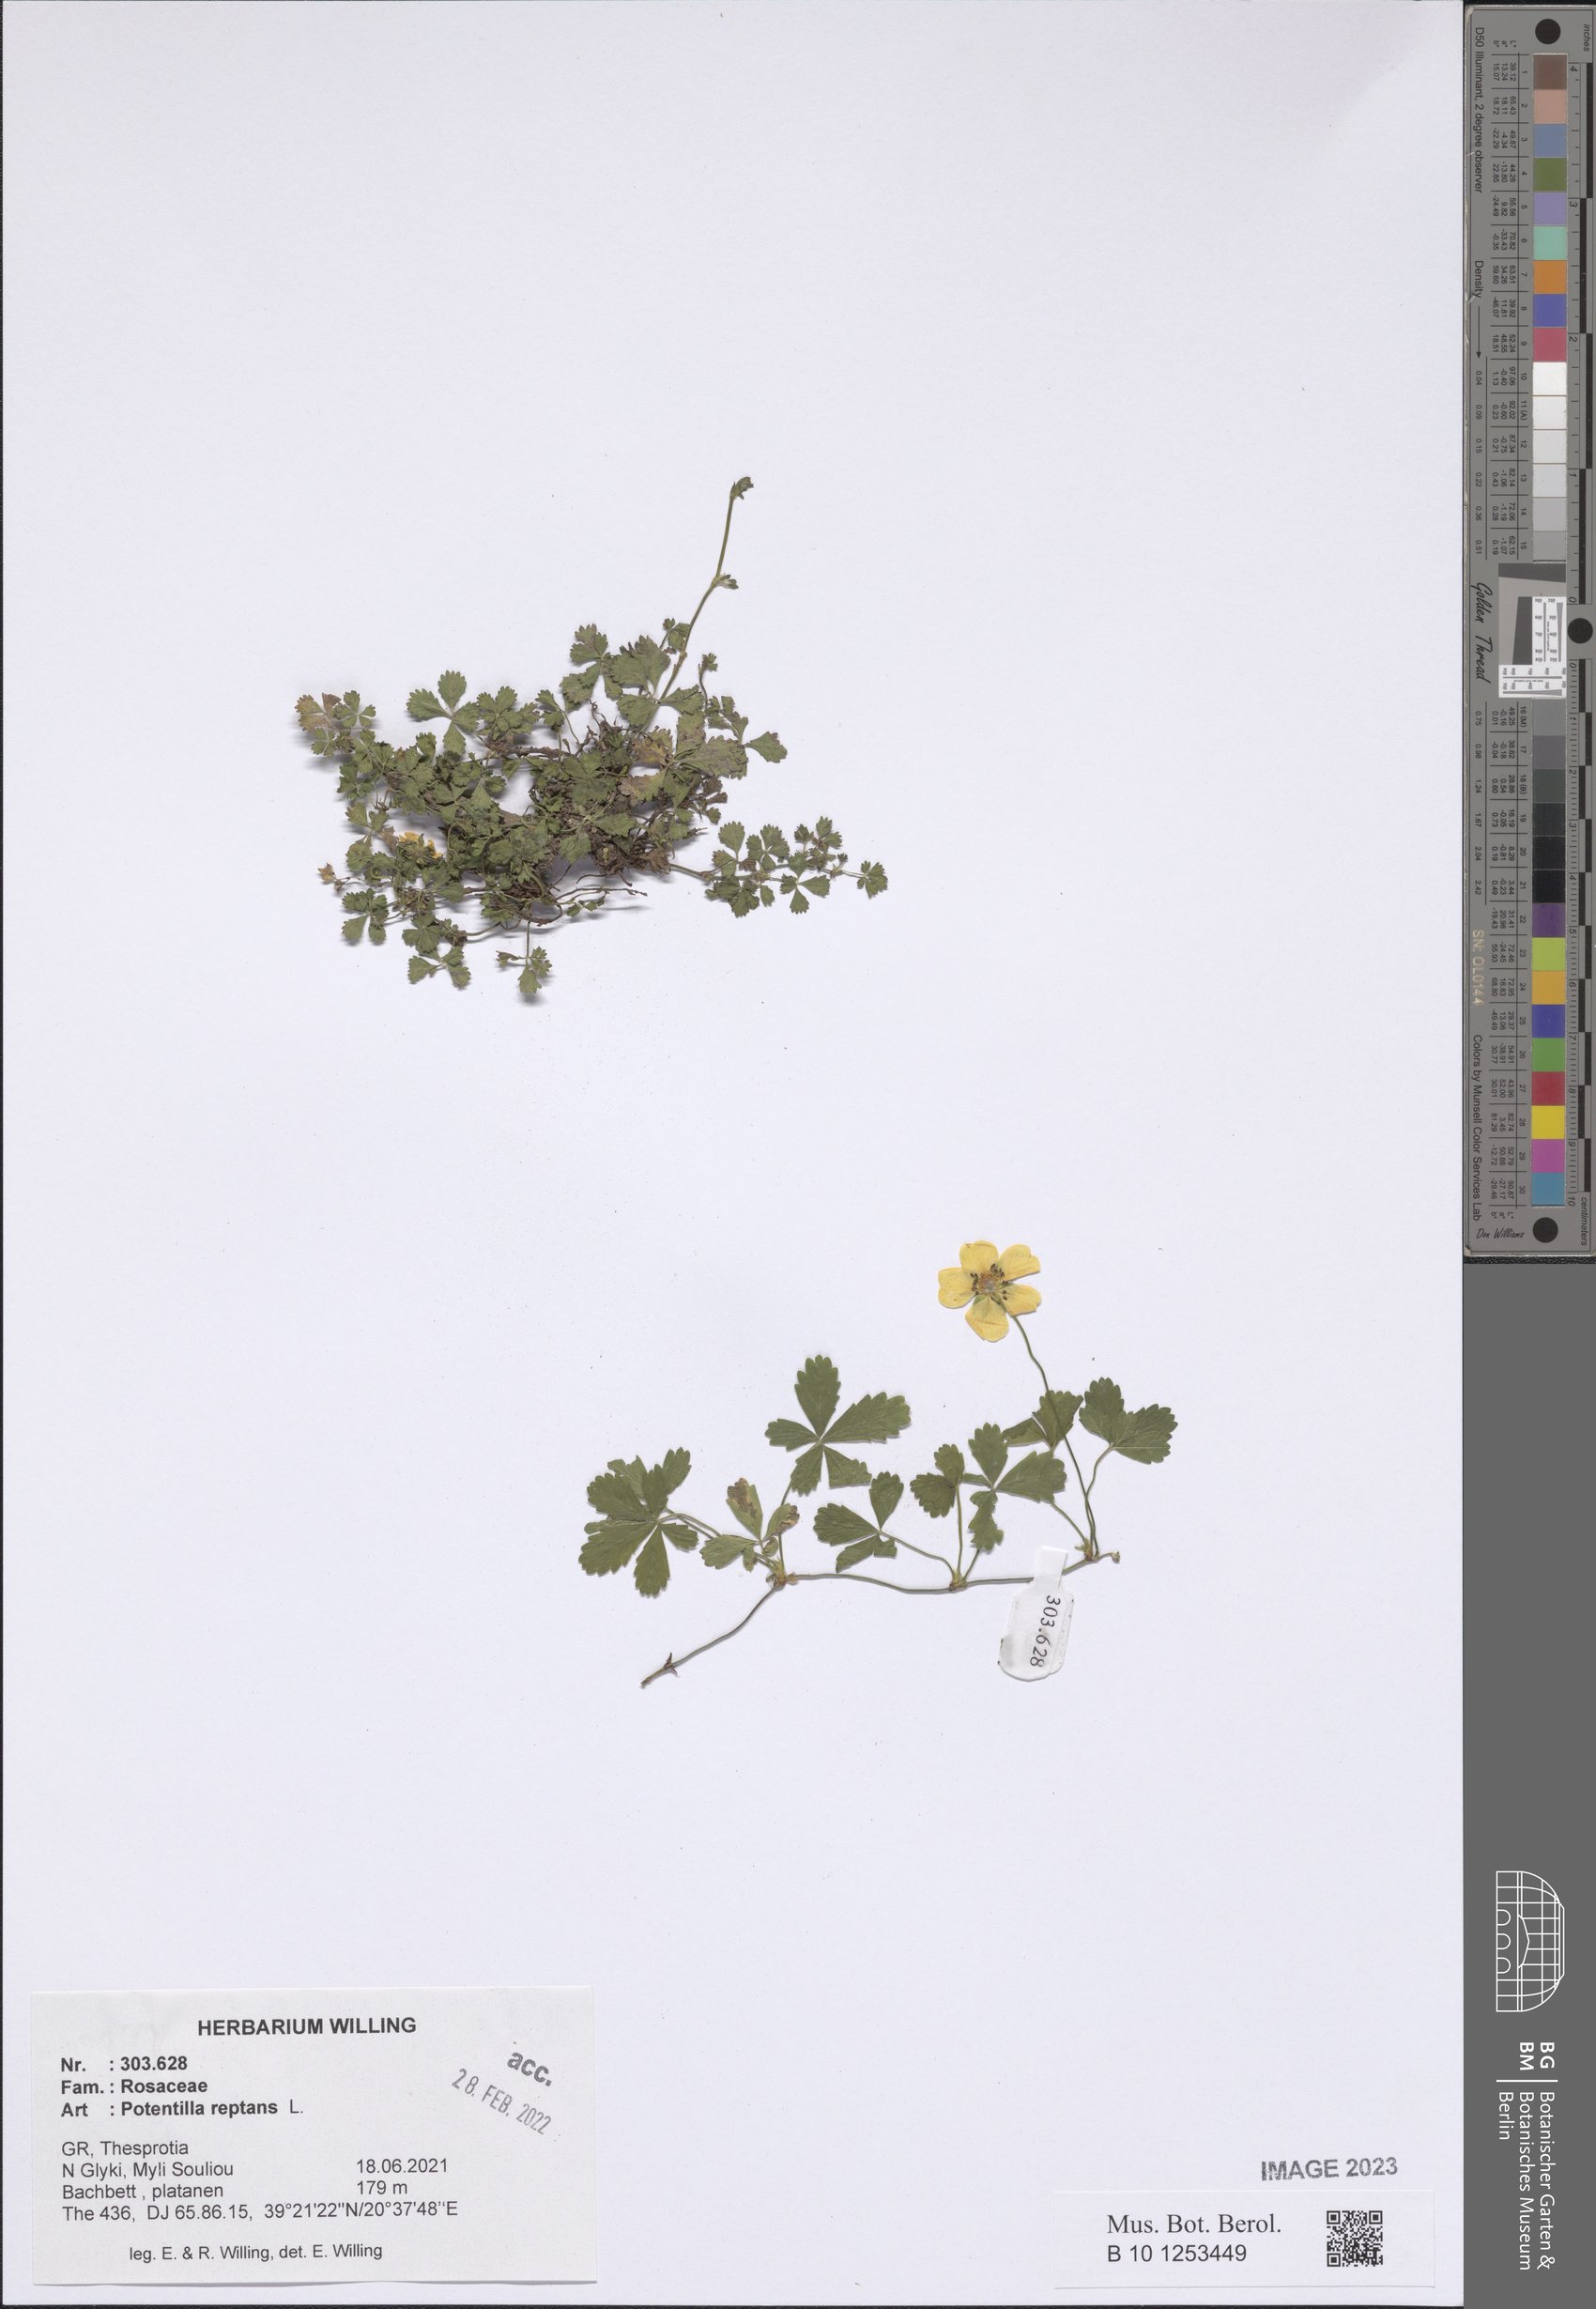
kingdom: Plantae
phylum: Tracheophyta
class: Magnoliopsida
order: Rosales
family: Rosaceae
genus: Potentilla
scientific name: Potentilla reptans
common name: Creeping cinquefoil
